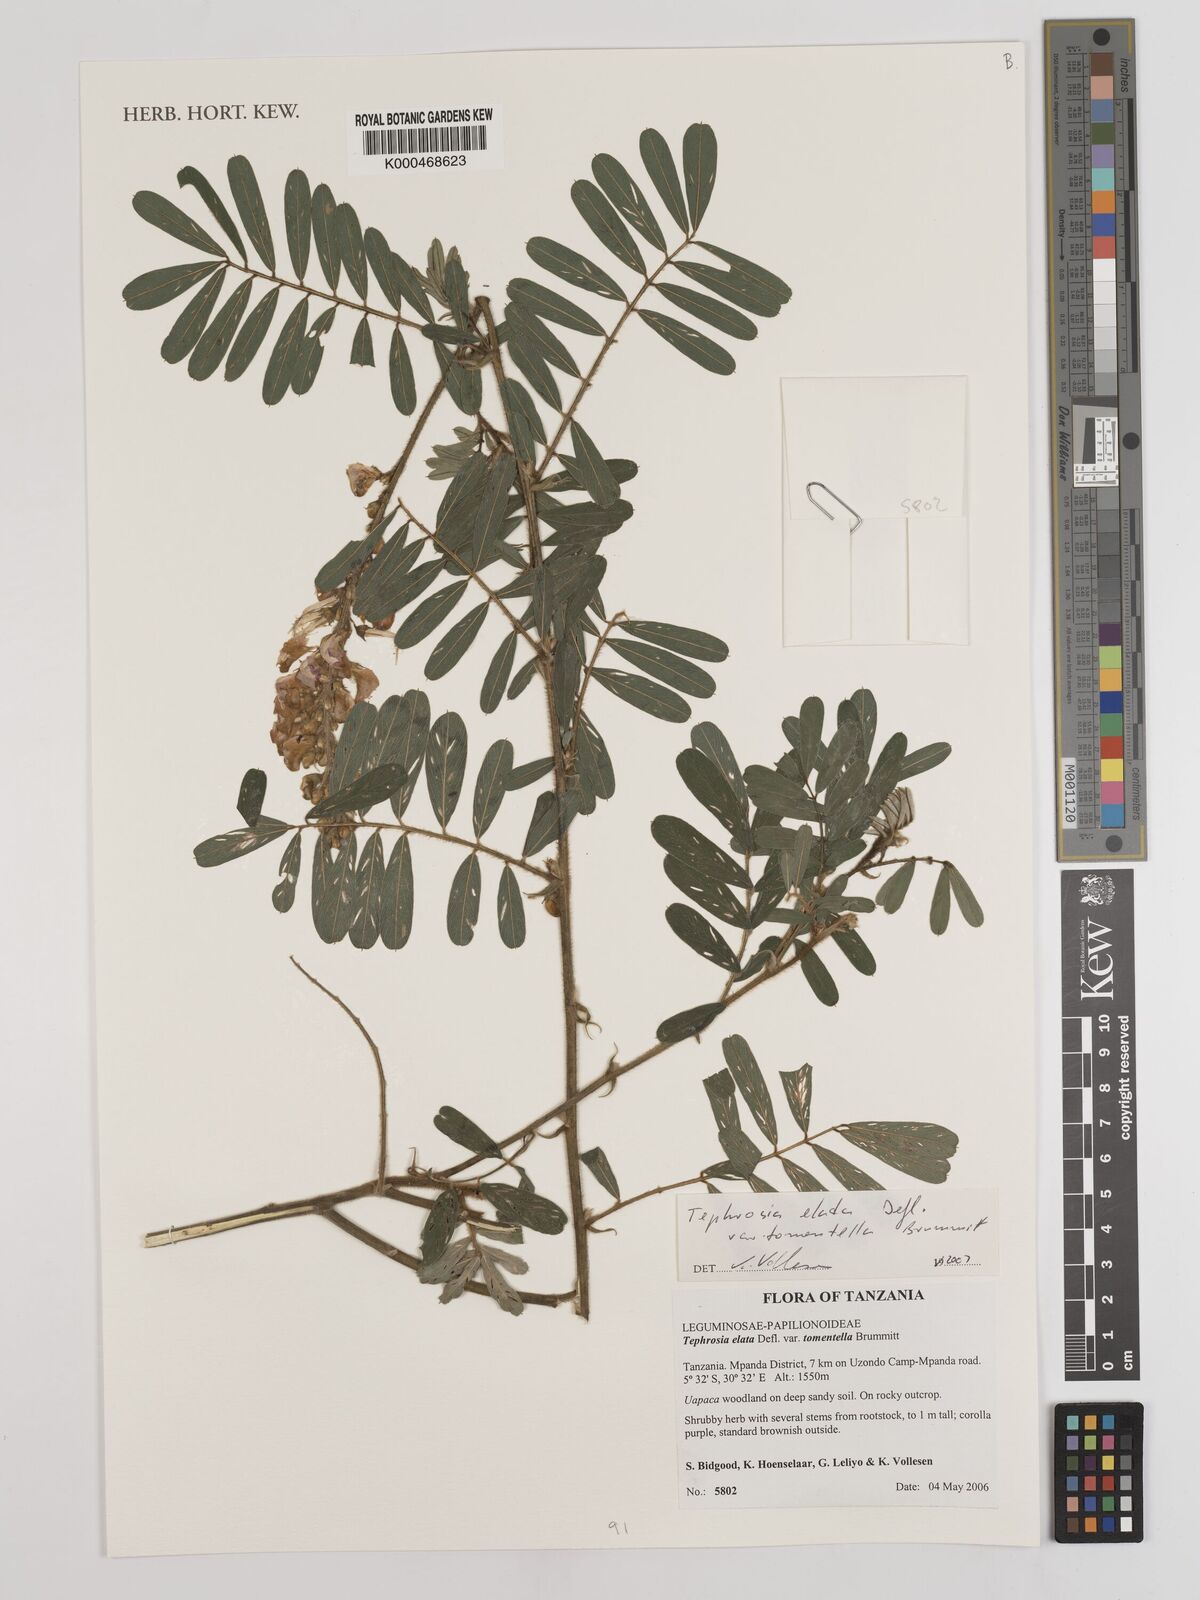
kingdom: Plantae
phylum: Tracheophyta
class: Magnoliopsida
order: Fabales
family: Fabaceae
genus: Tephrosia
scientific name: Tephrosia elata
